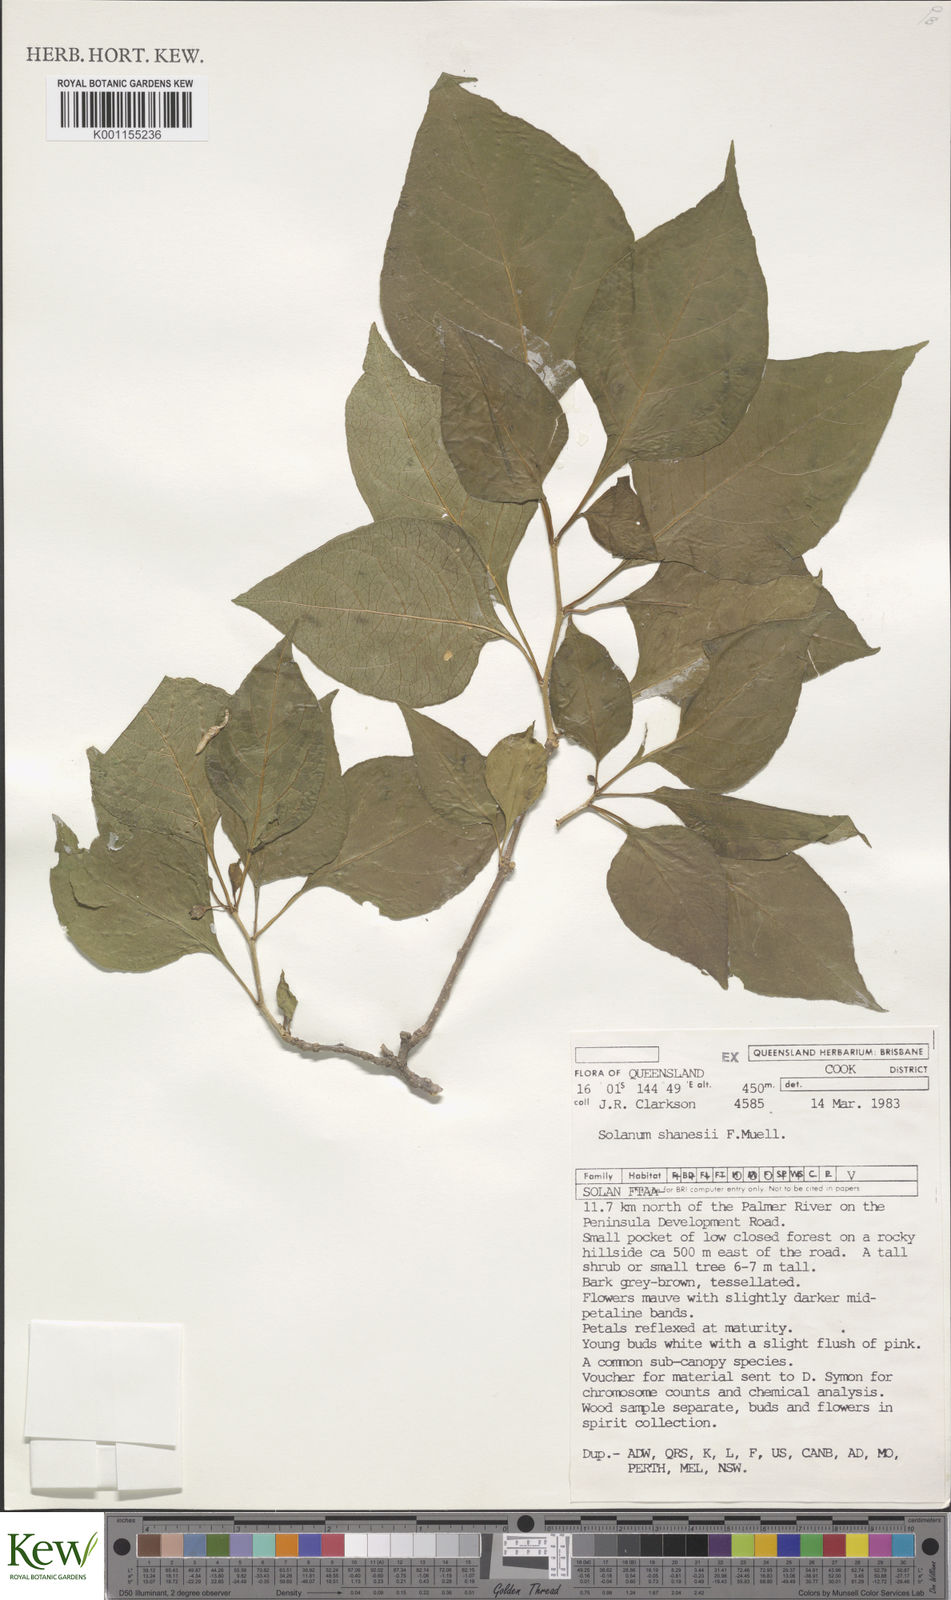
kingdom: Plantae
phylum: Tracheophyta
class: Magnoliopsida
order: Solanales
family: Solanaceae
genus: Lycianthes
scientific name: Lycianthes shanesii
